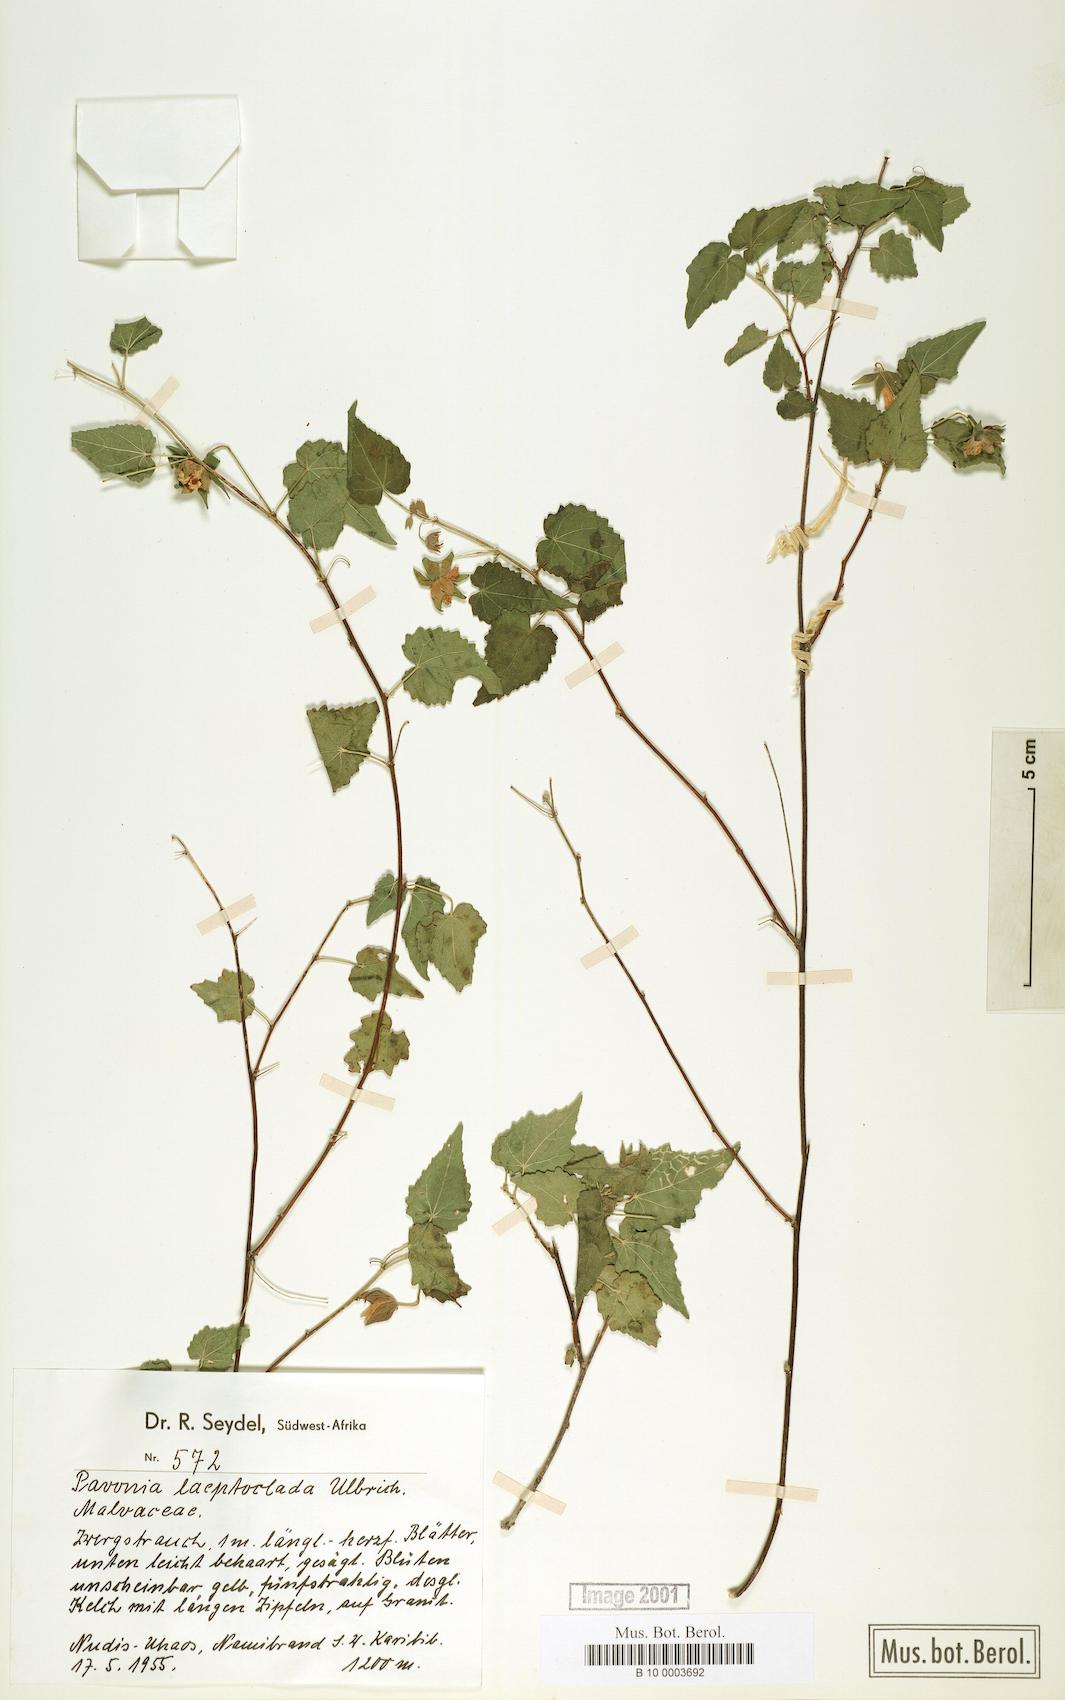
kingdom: Plantae
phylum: Tracheophyta
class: Magnoliopsida
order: Malvales
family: Malvaceae
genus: Pavonia
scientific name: Pavonia burchellii
